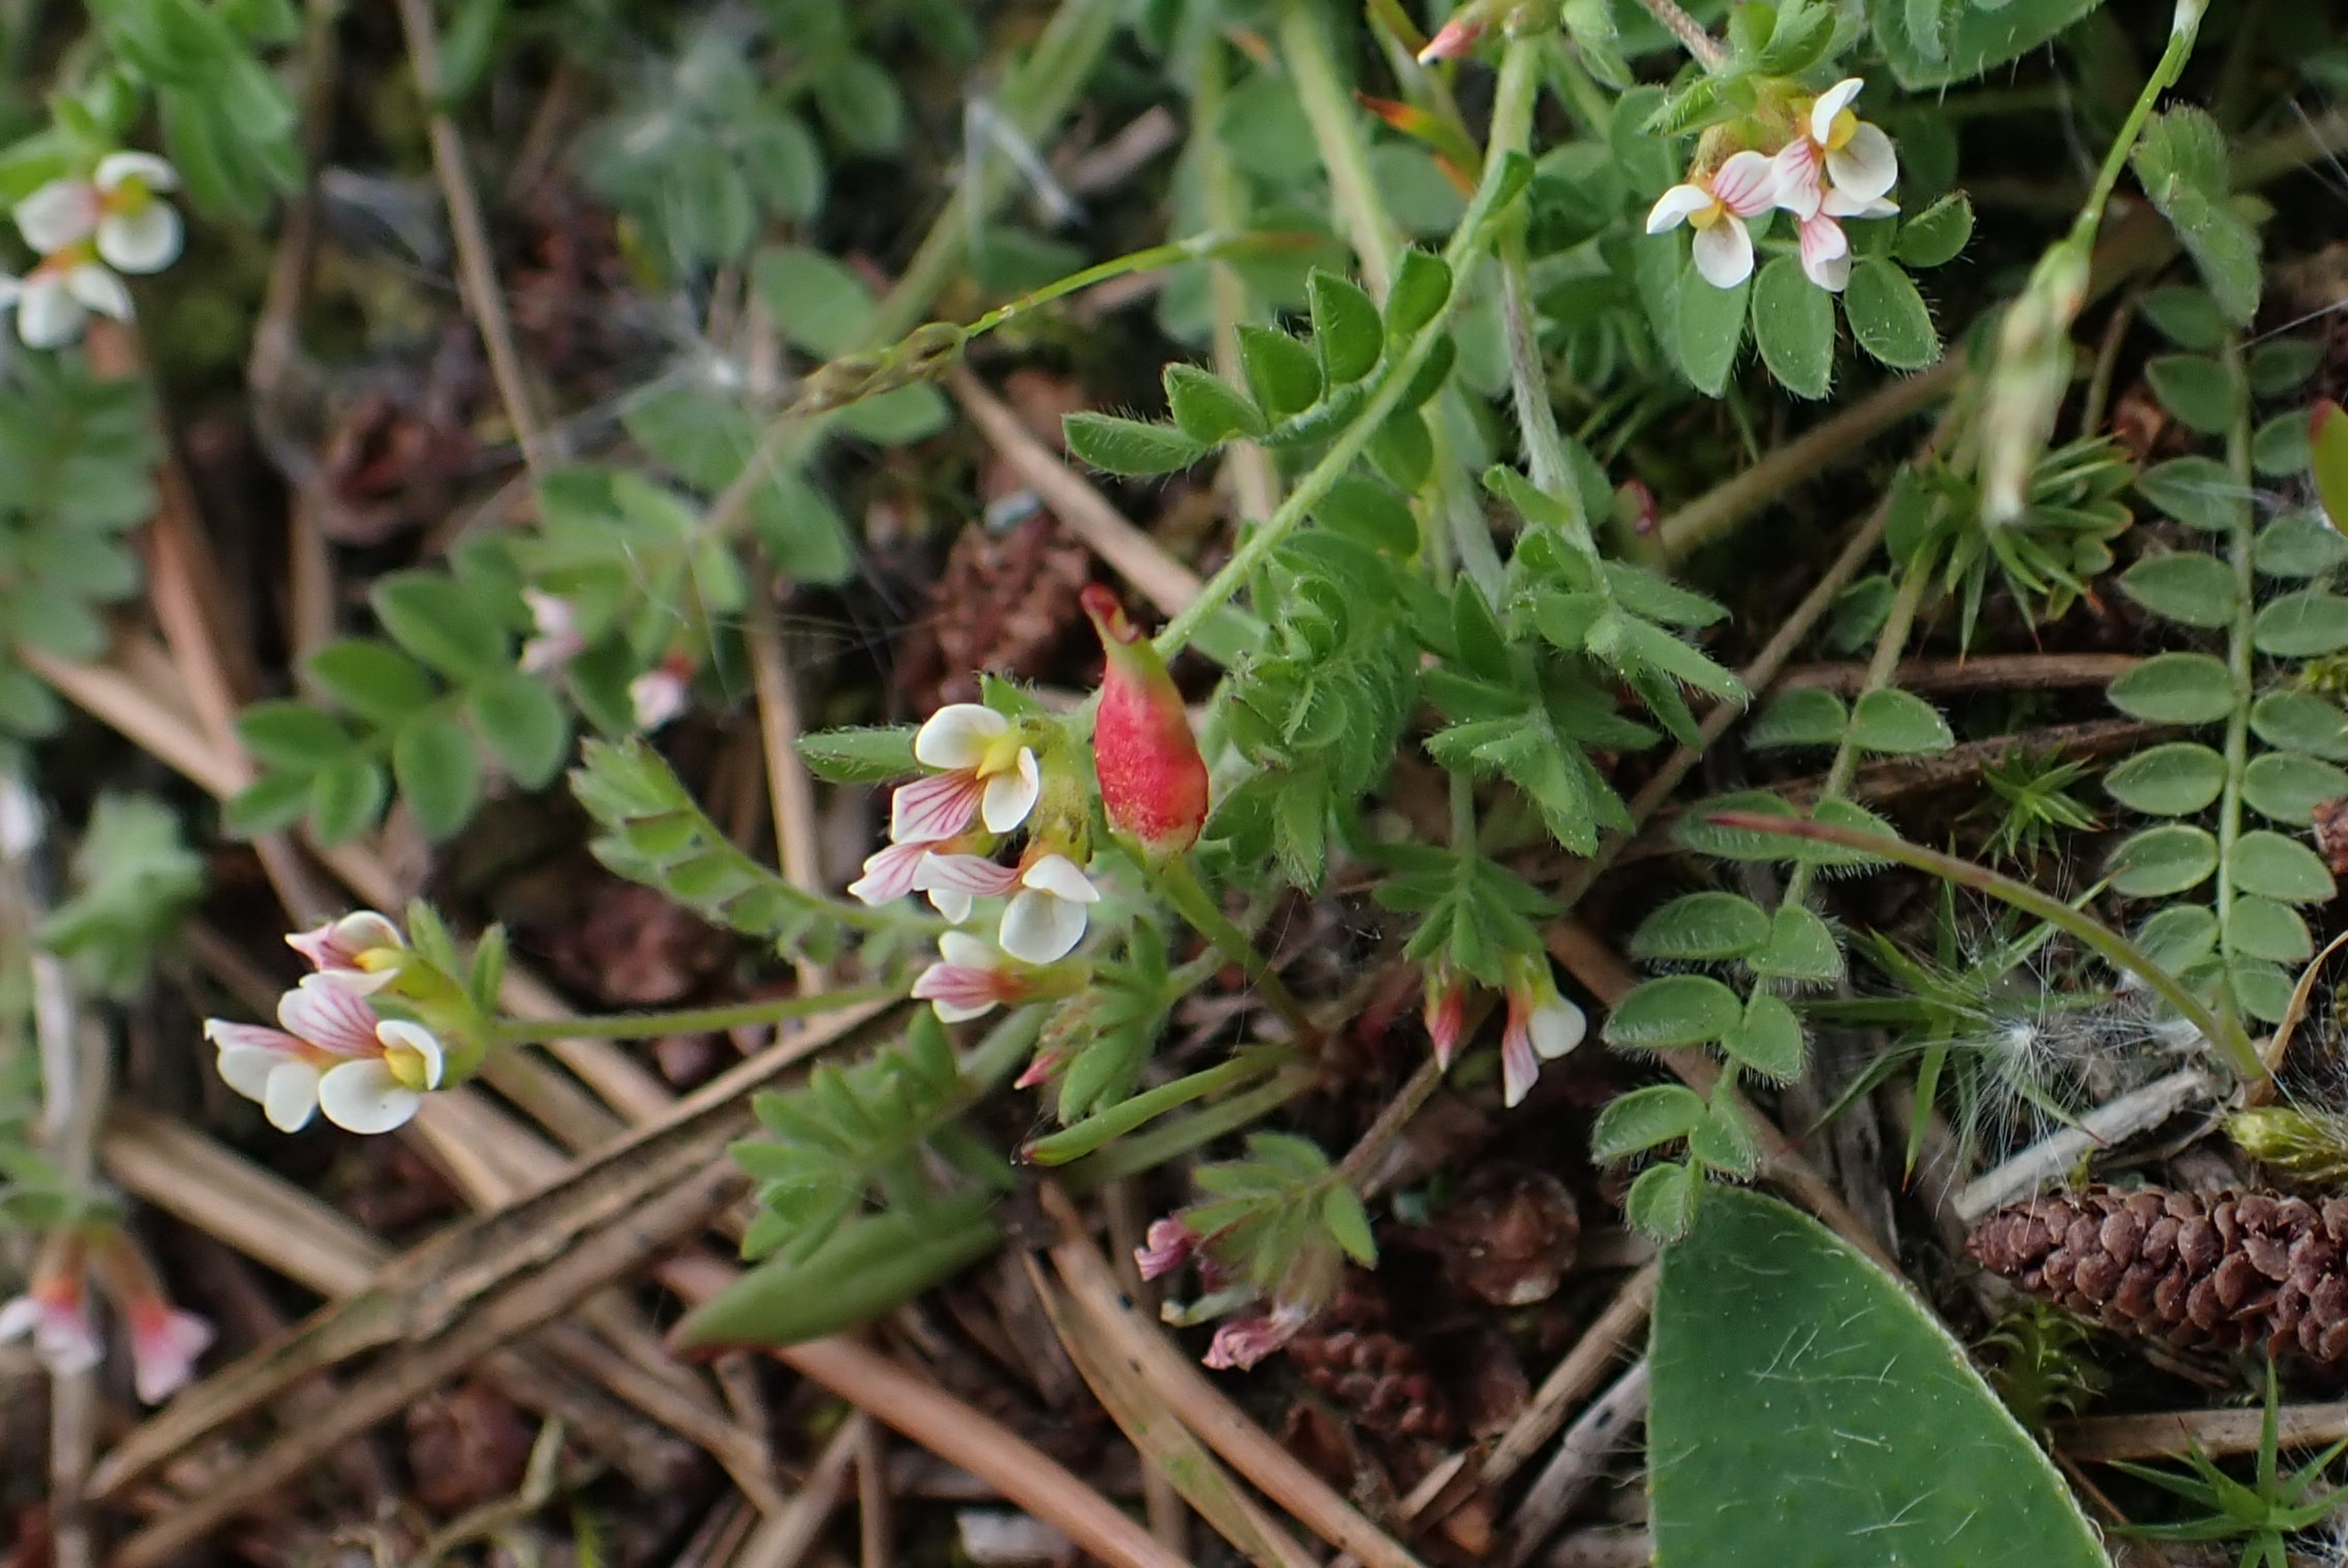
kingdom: Plantae
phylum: Tracheophyta
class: Magnoliopsida
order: Fabales
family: Fabaceae
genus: Ornithopus
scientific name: Ornithopus perpusillus
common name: Liden fugleklo
